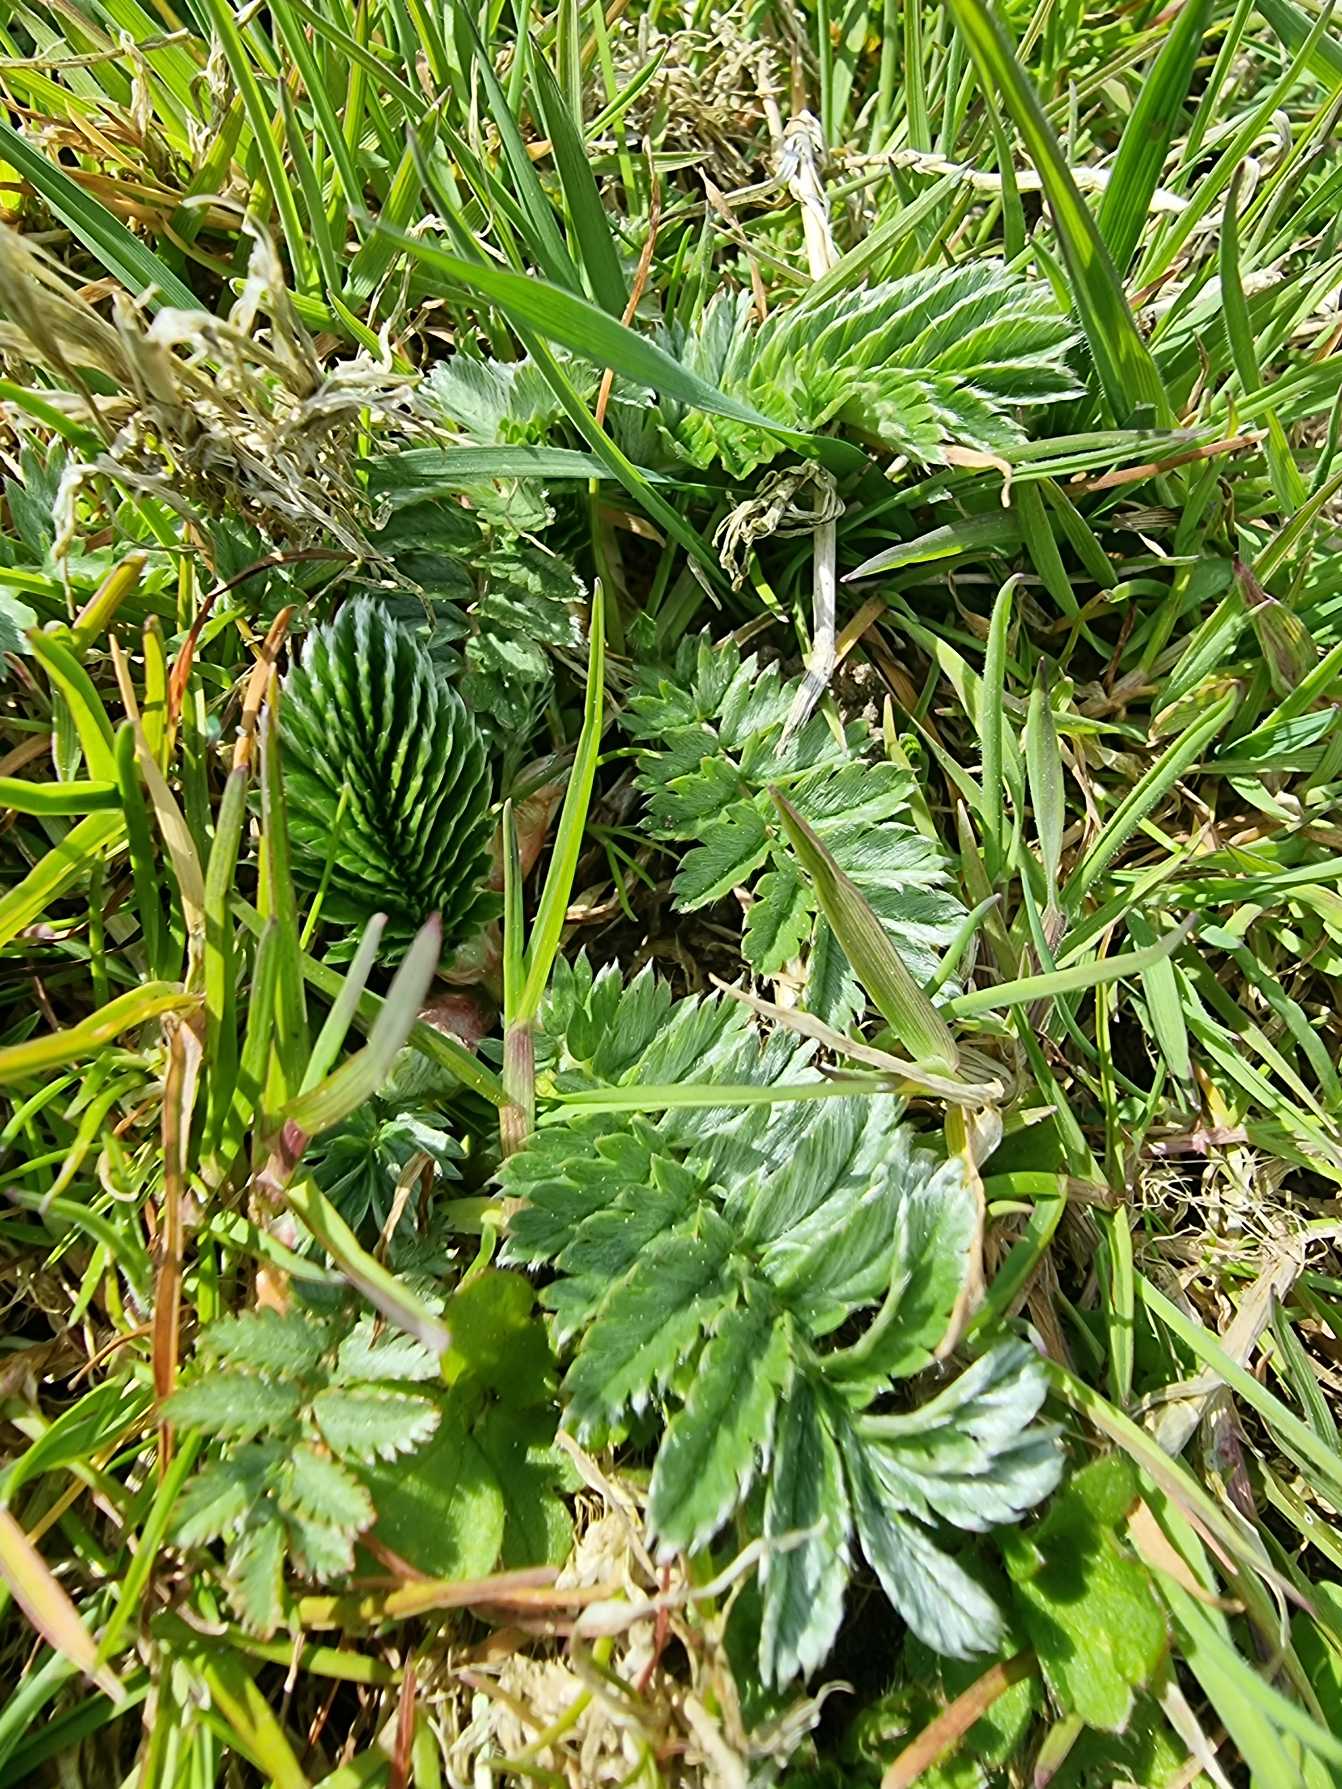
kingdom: Plantae
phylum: Tracheophyta
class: Magnoliopsida
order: Rosales
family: Rosaceae
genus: Argentina
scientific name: Argentina anserina
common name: Gåsepotentil
